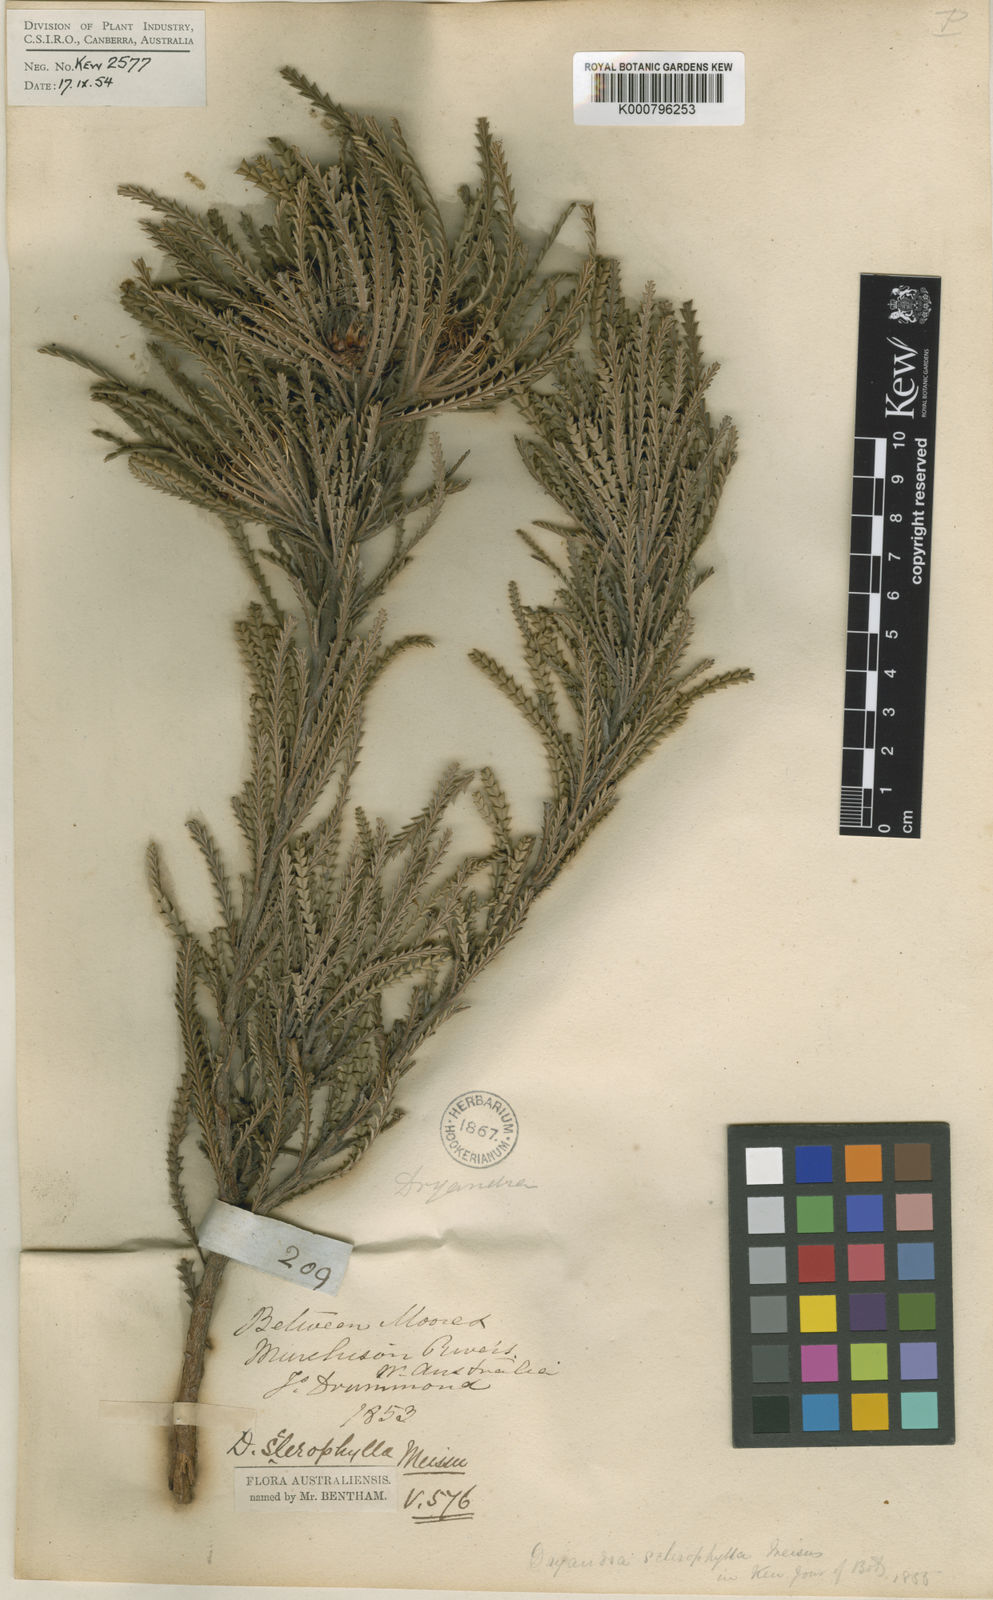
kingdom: Plantae
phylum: Tracheophyta
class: Magnoliopsida
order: Proteales
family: Proteaceae
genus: Banksia
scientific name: Banksia sclerophylla
